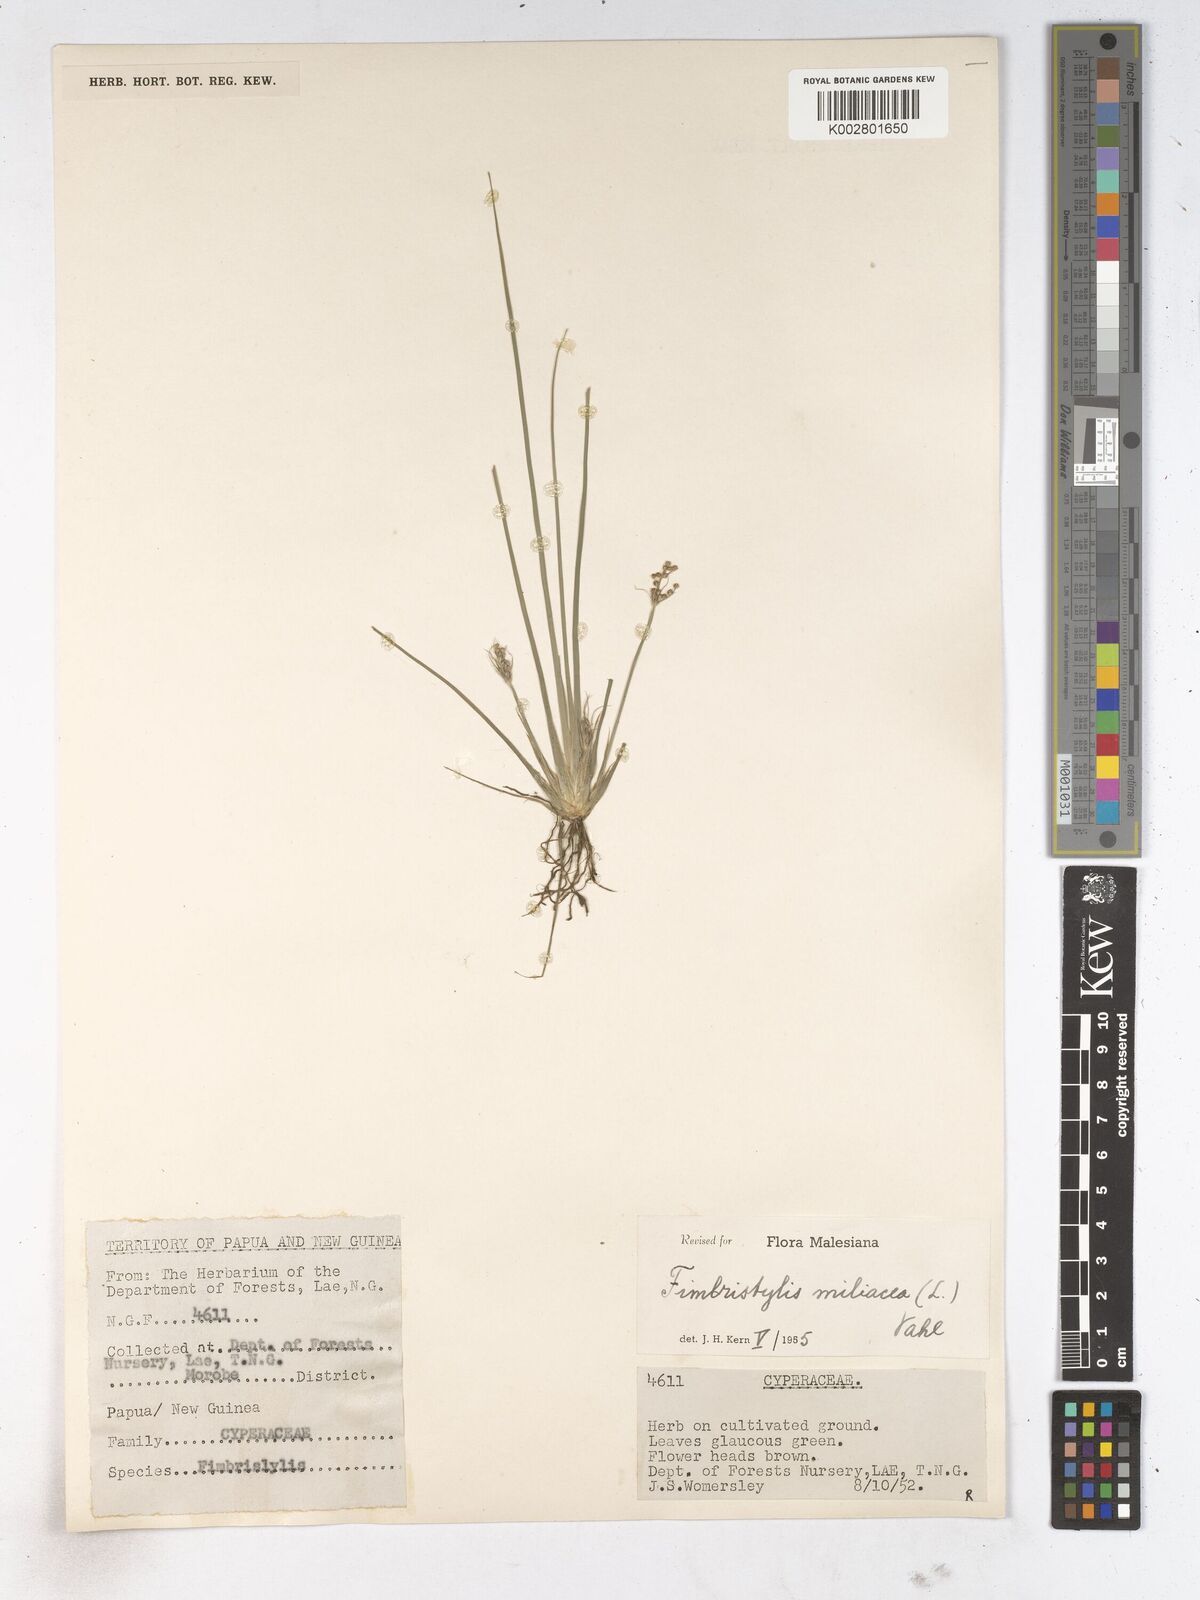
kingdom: Plantae
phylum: Tracheophyta
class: Liliopsida
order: Poales
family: Cyperaceae
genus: Fimbristylis
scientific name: Fimbristylis littoralis
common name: Fimbry
